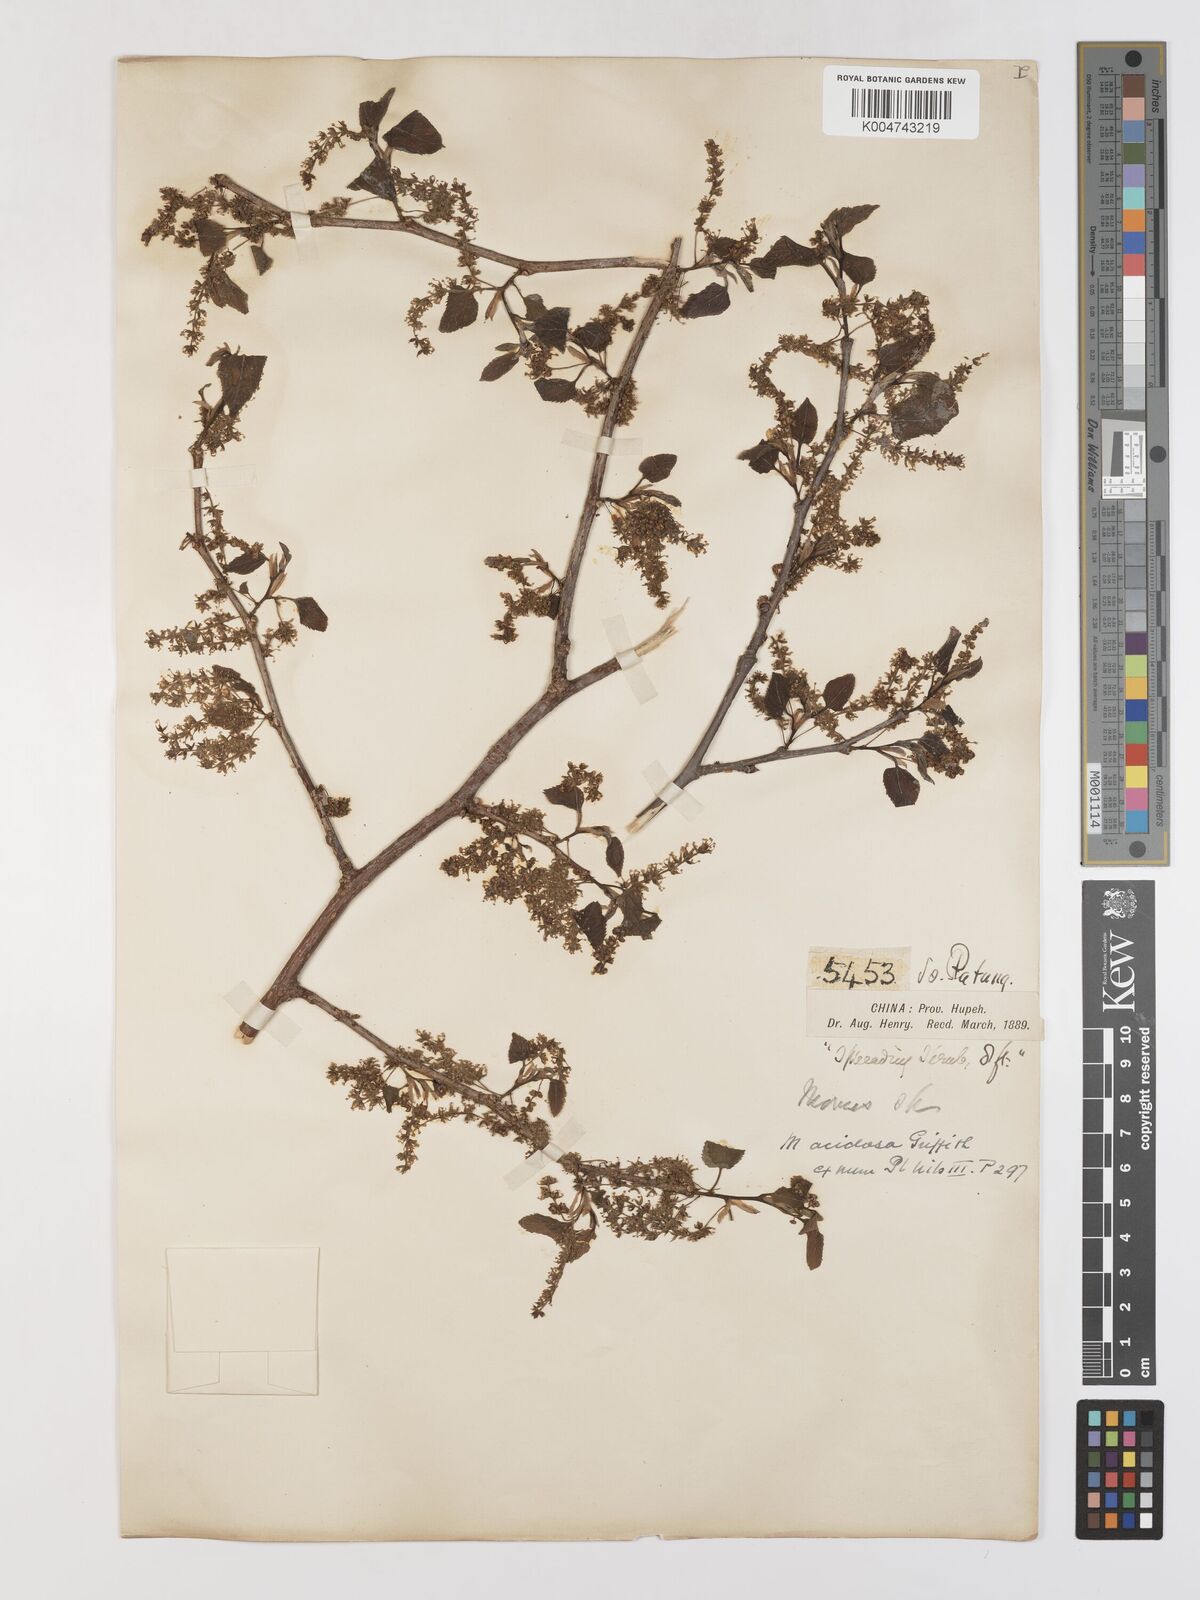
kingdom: Plantae
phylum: Tracheophyta
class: Magnoliopsida
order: Rosales
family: Moraceae
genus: Morus
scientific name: Morus indica
